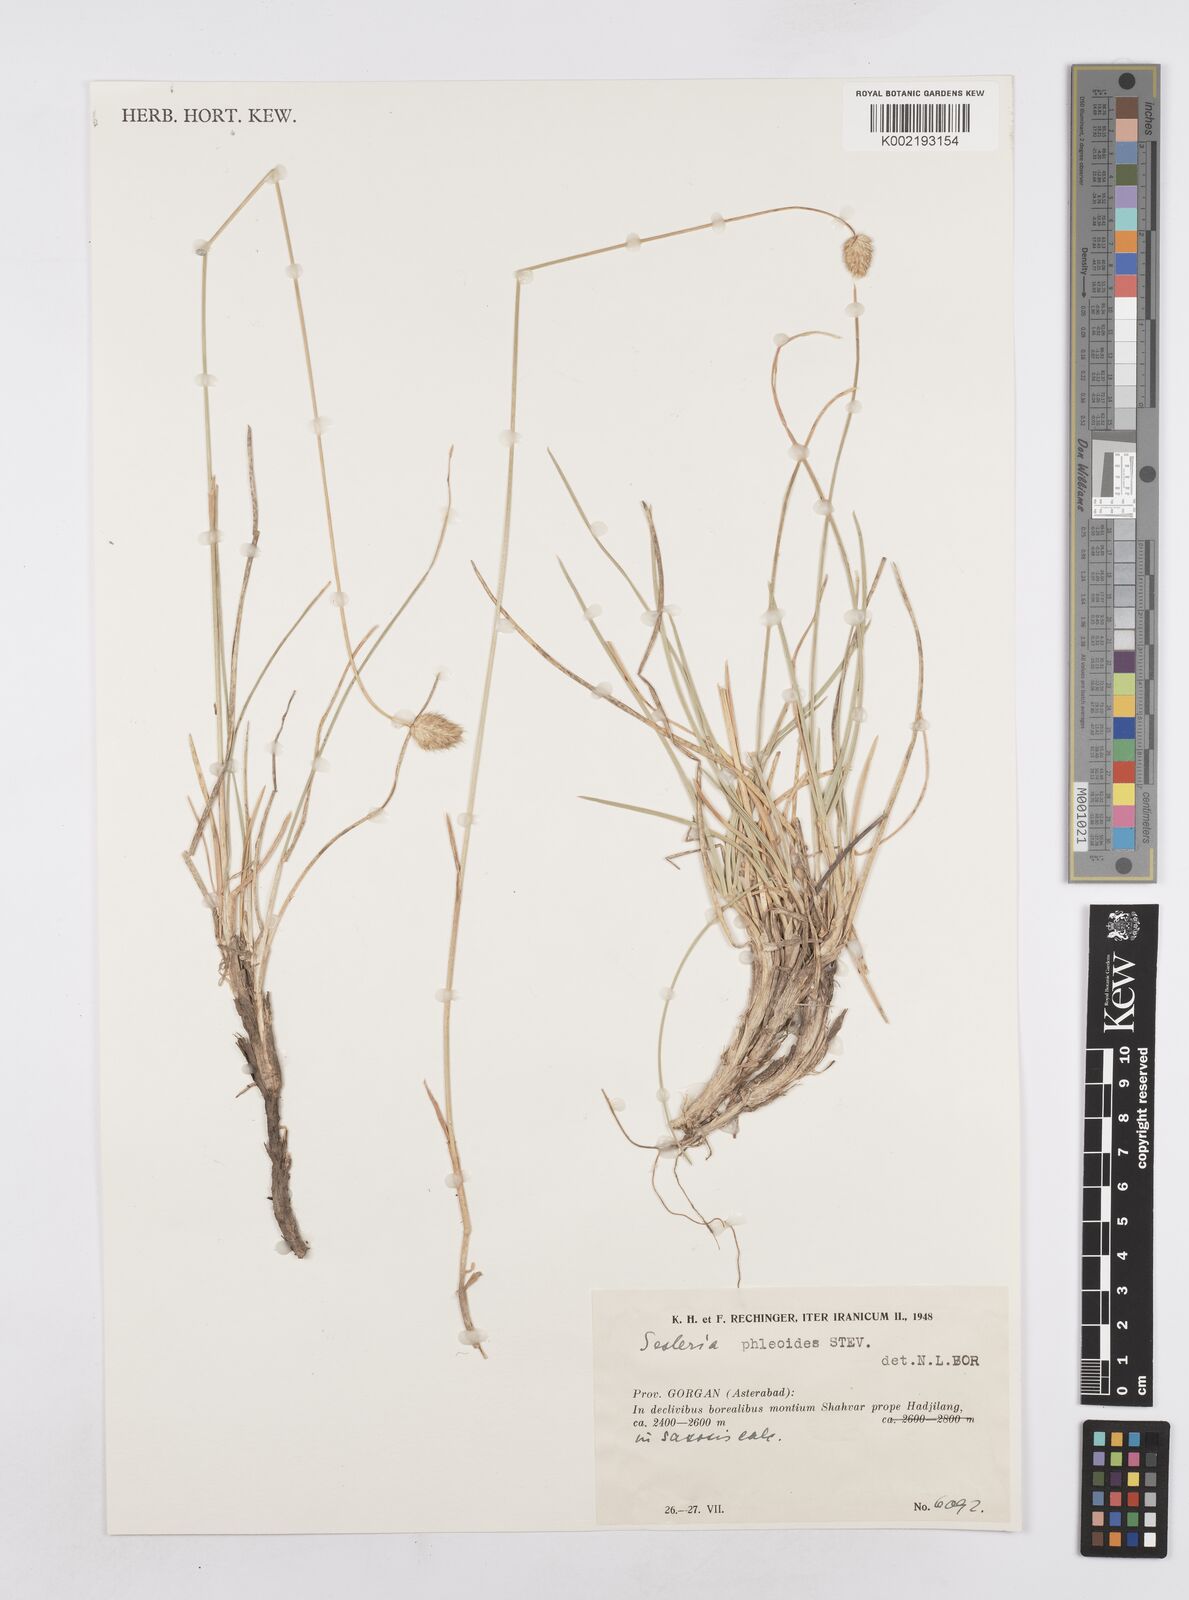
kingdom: Plantae
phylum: Tracheophyta
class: Liliopsida
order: Poales
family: Poaceae
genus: Sesleria
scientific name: Sesleria phleoides
